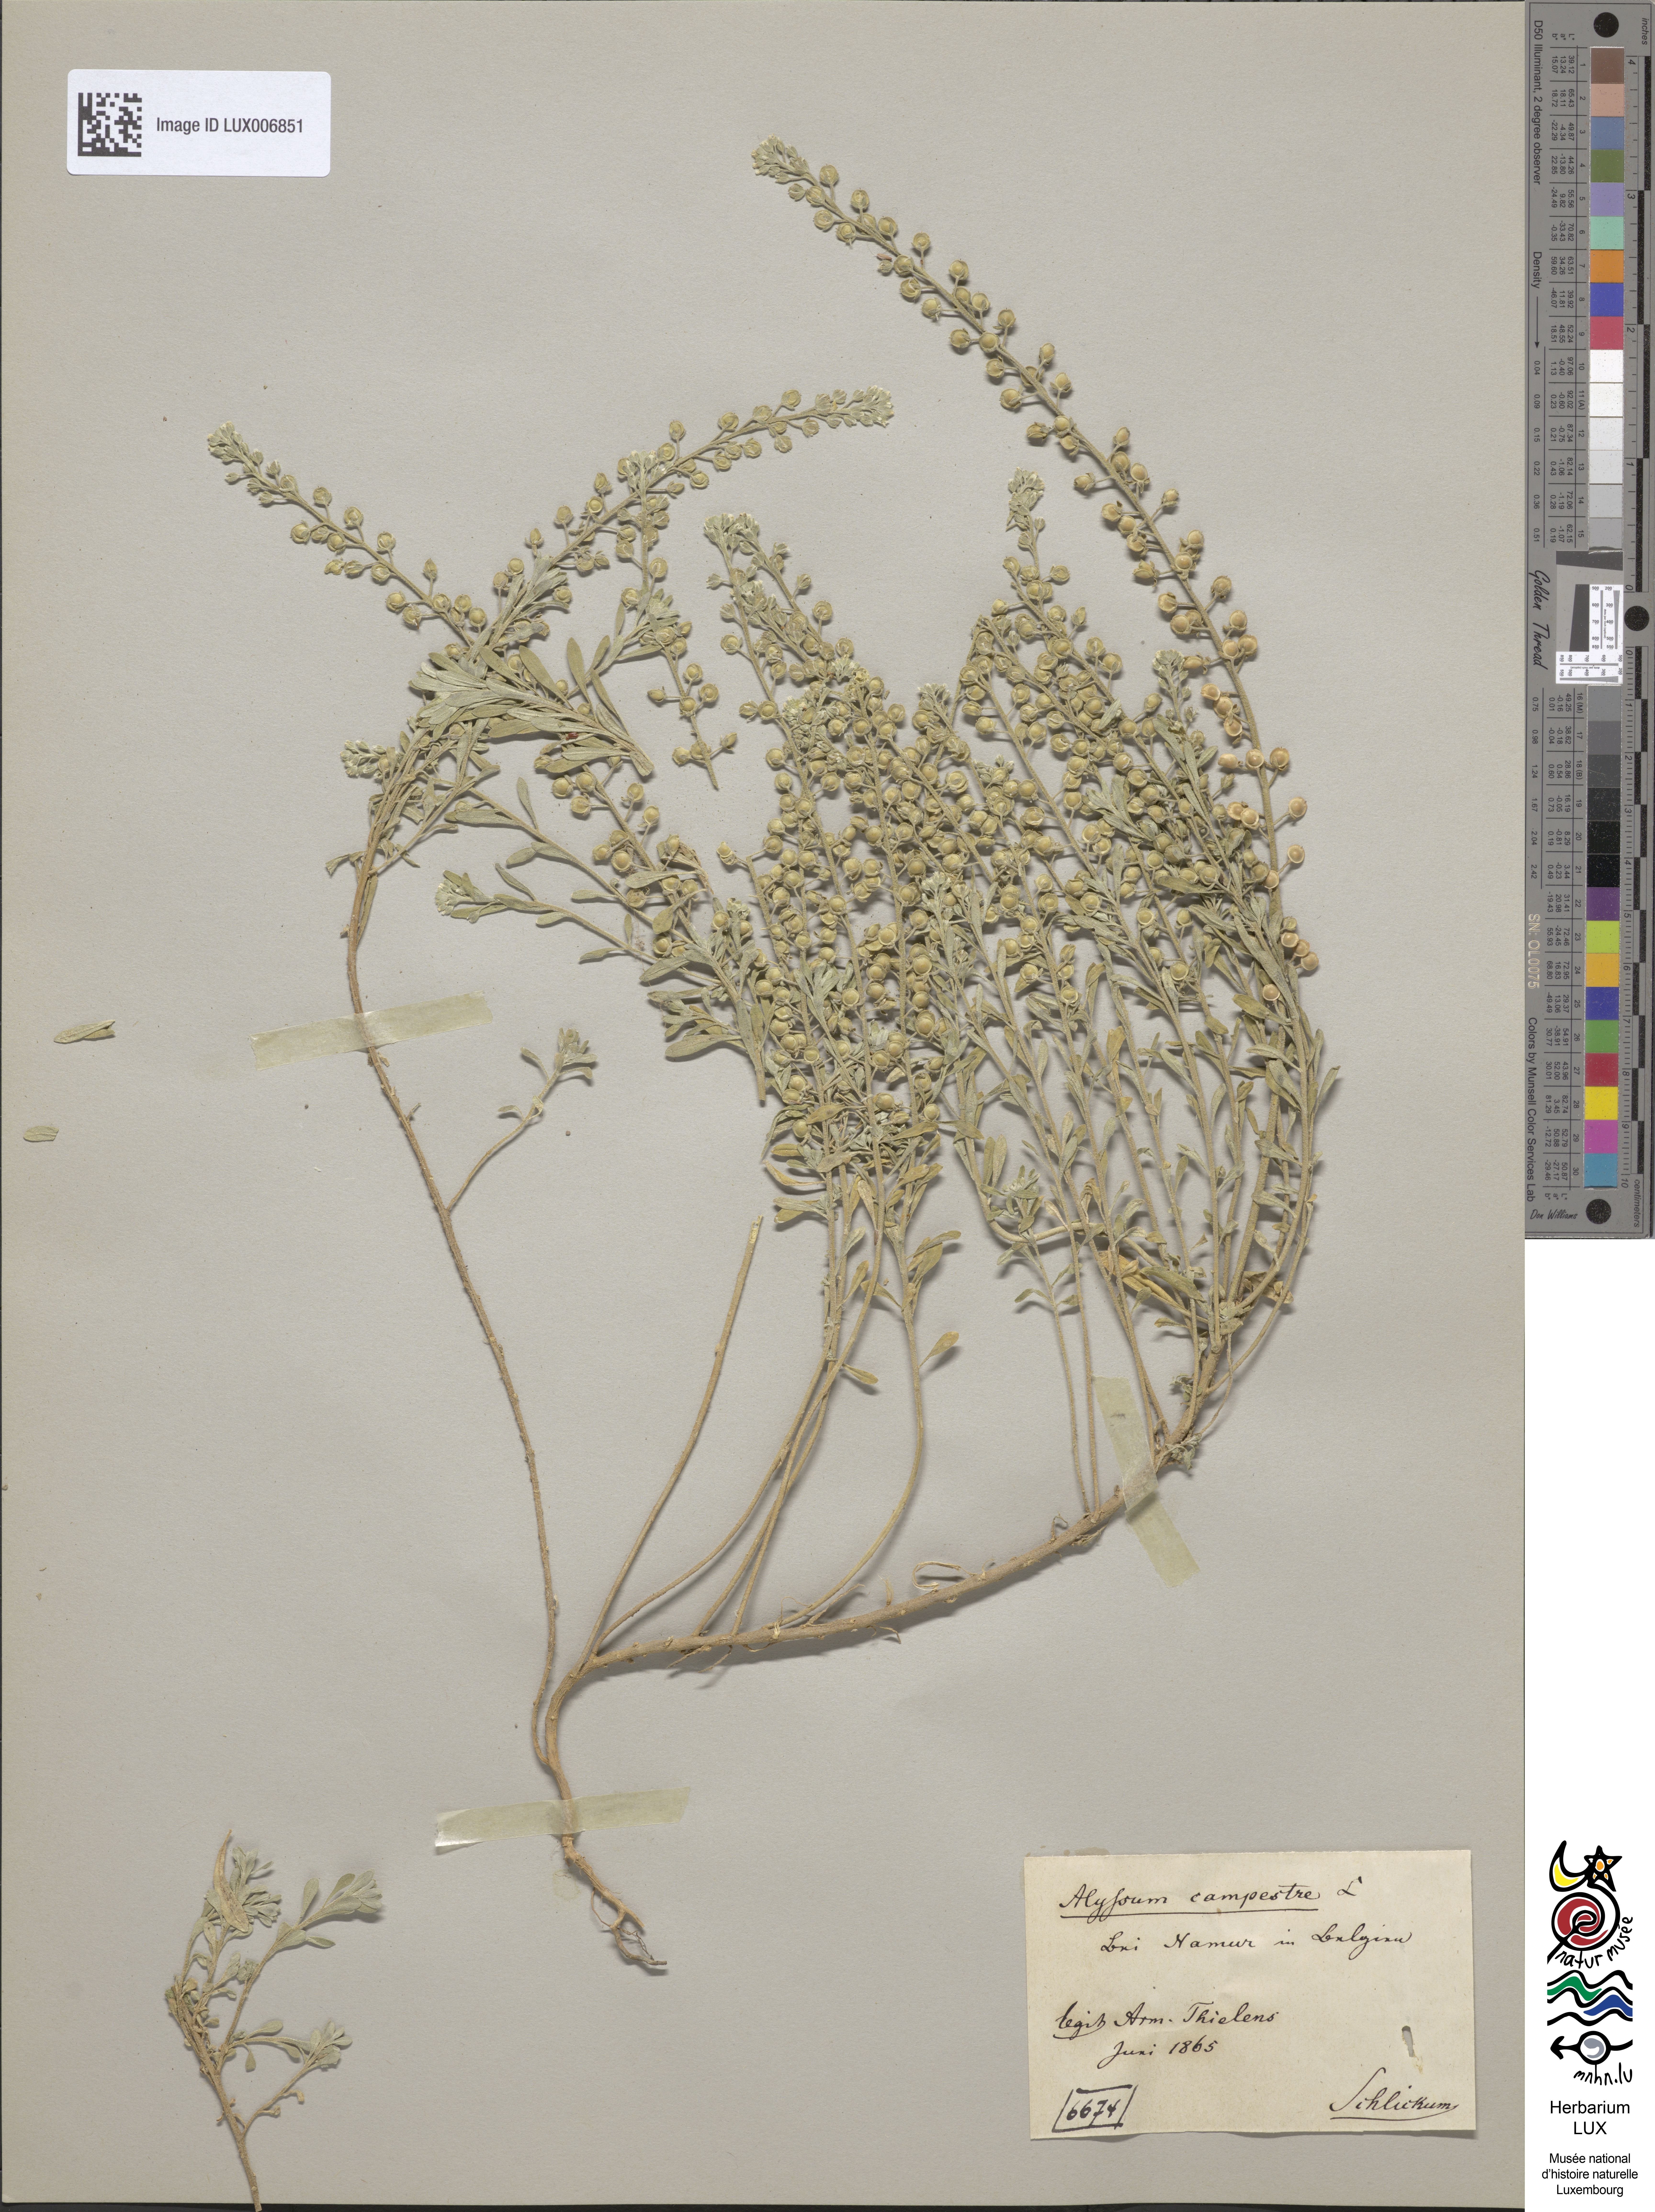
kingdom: Plantae
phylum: Tracheophyta
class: Magnoliopsida
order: Brassicales
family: Brassicaceae
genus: Alyssum
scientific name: Alyssum alyssoides
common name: Small alison
